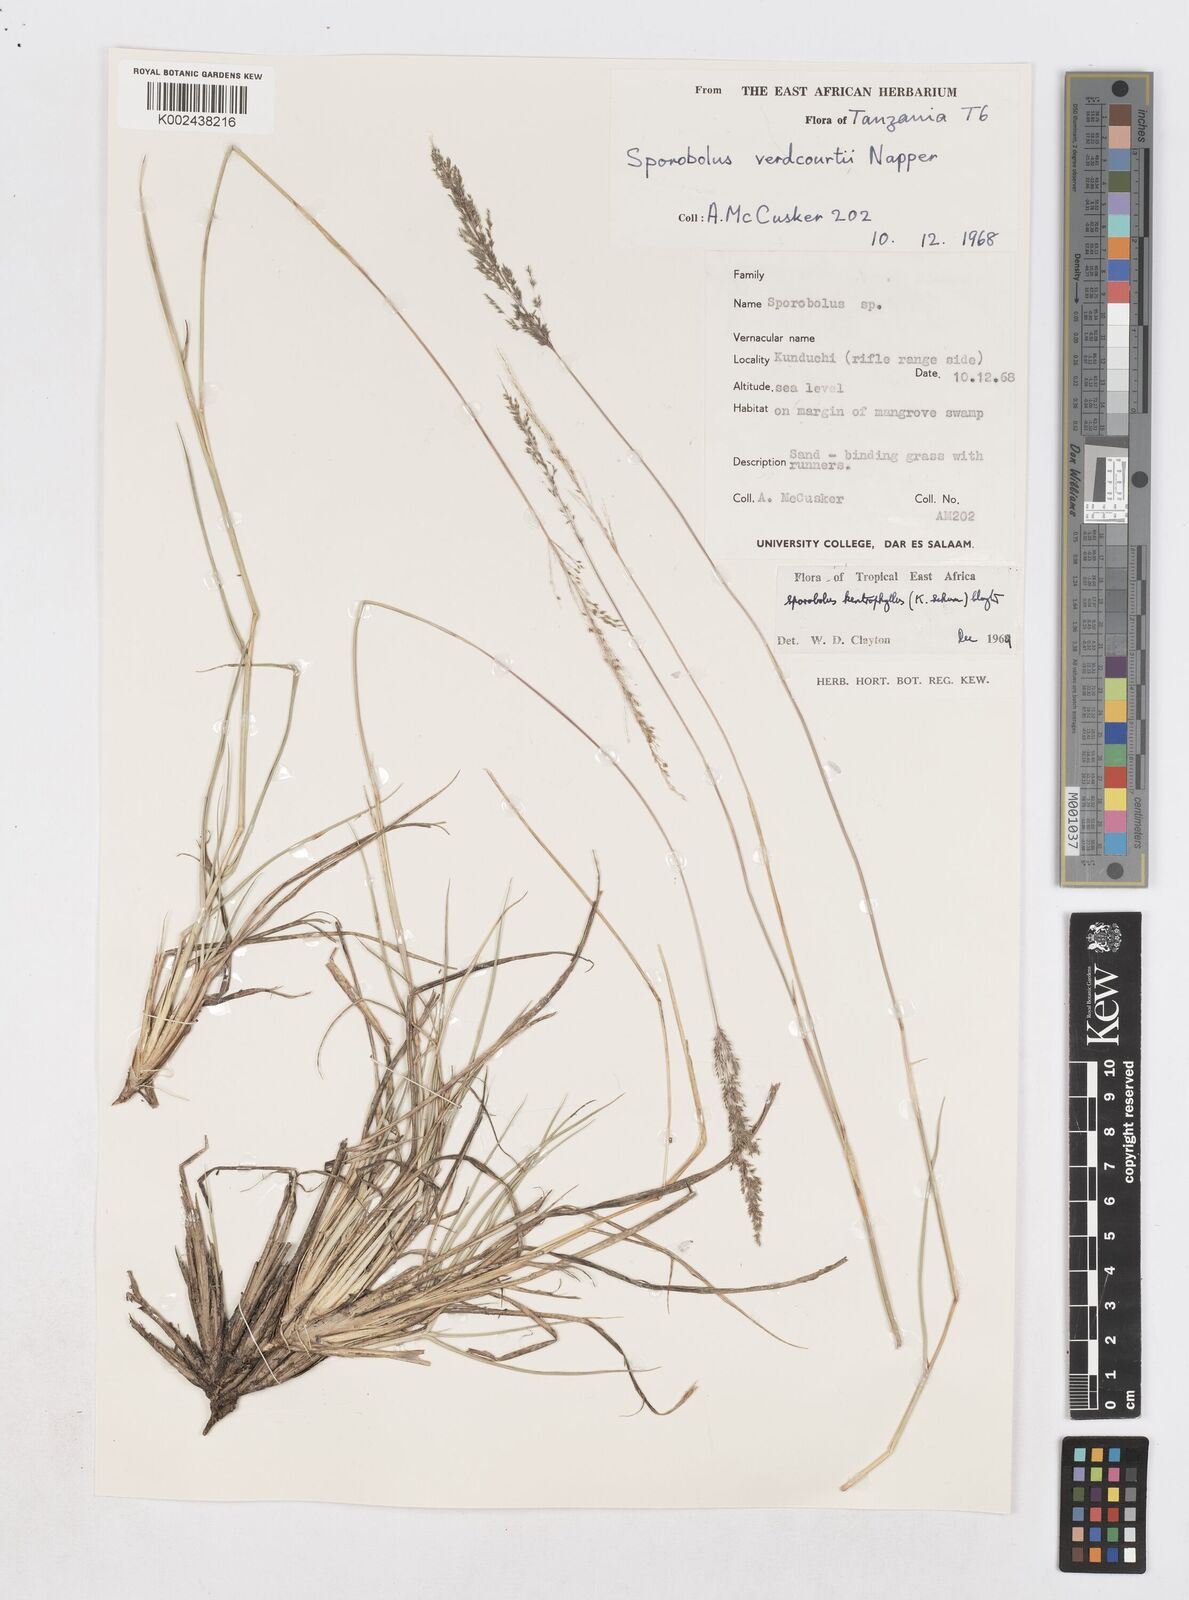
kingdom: Plantae
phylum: Tracheophyta
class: Liliopsida
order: Poales
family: Poaceae
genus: Sporobolus
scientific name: Sporobolus ioclados
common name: Pan dropseed
